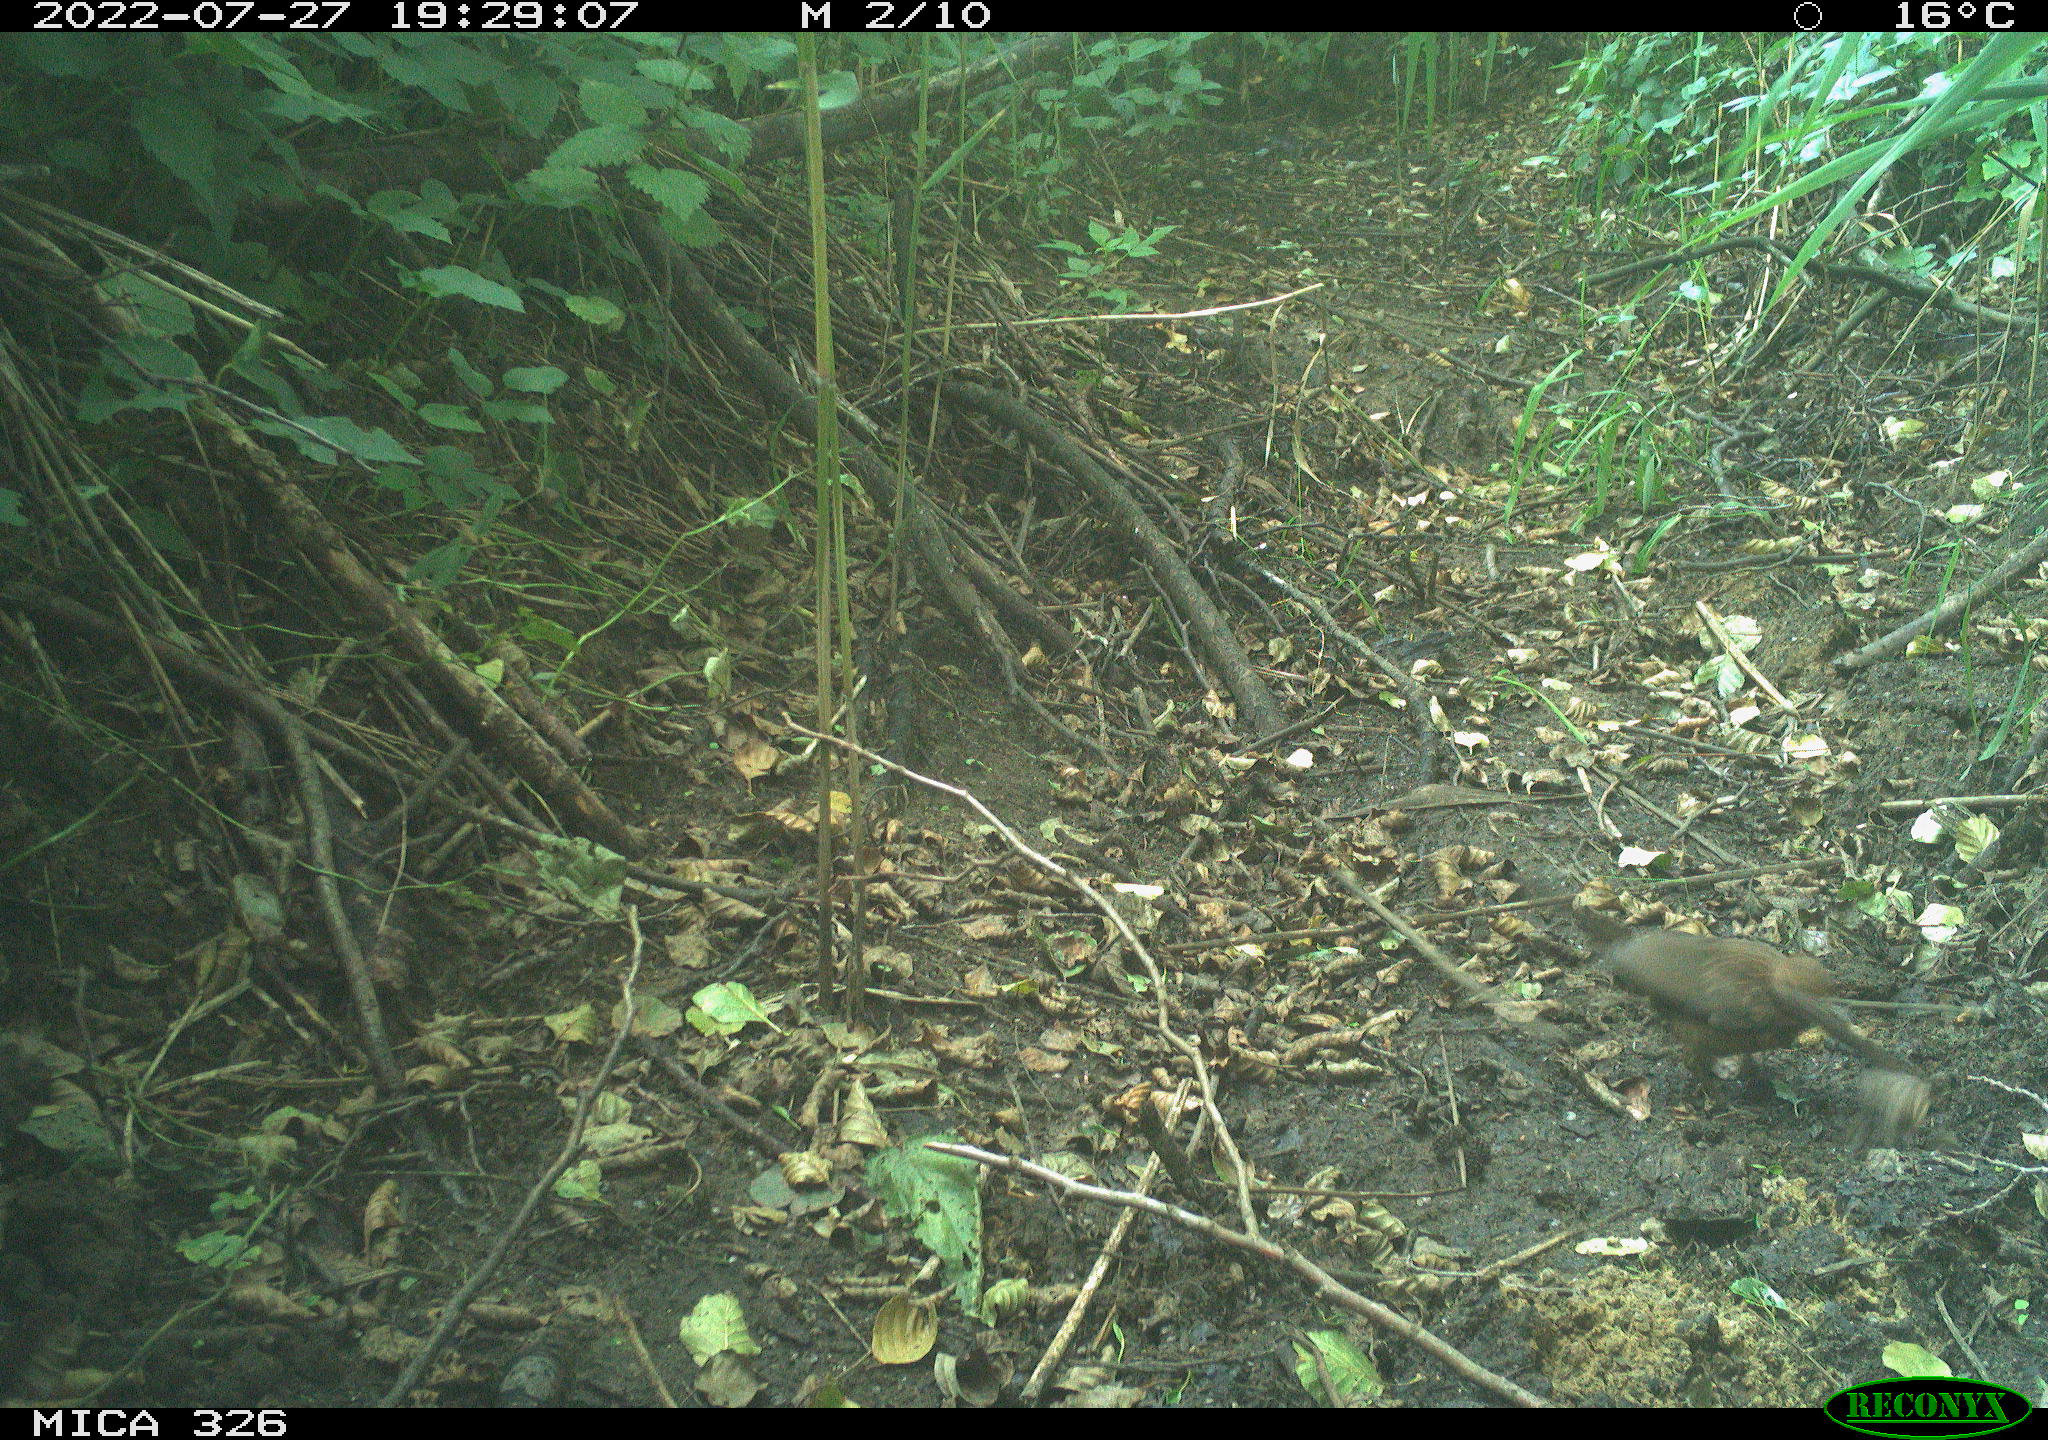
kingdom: Animalia
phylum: Chordata
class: Aves
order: Passeriformes
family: Turdidae
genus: Turdus
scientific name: Turdus merula
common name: Common blackbird
